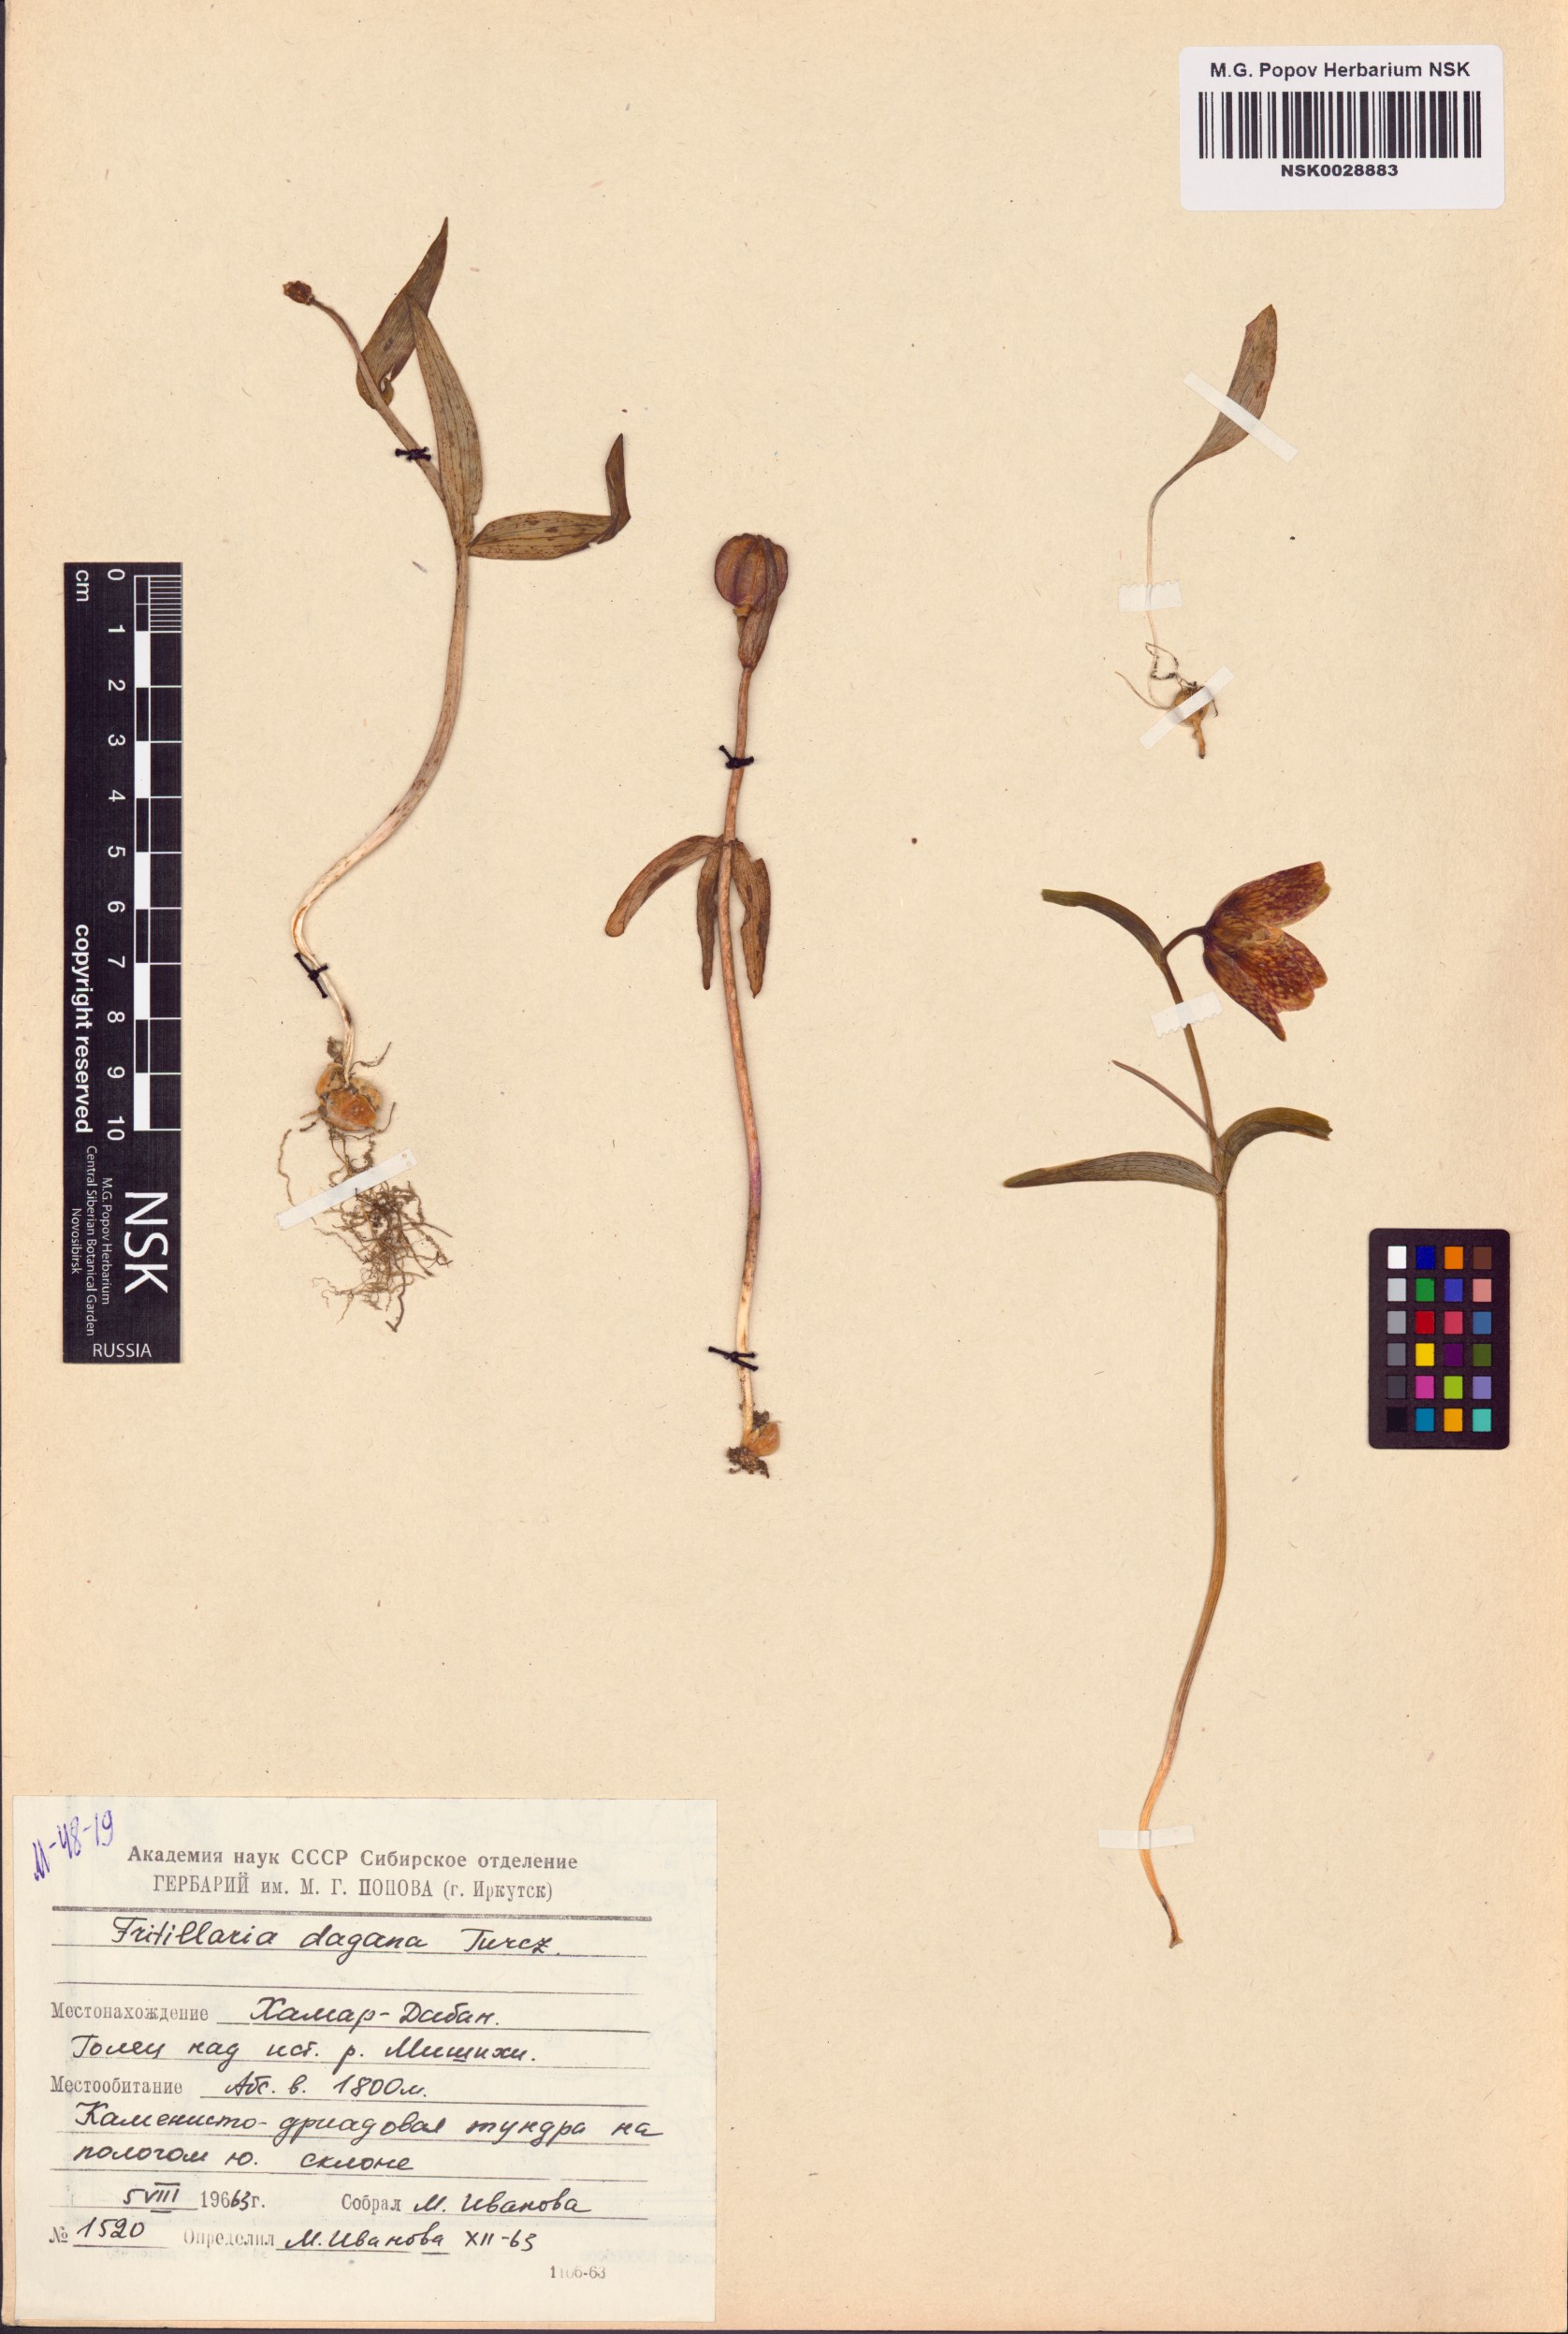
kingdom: Plantae
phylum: Tracheophyta
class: Liliopsida
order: Liliales
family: Liliaceae
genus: Fritillaria
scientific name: Fritillaria dagana
